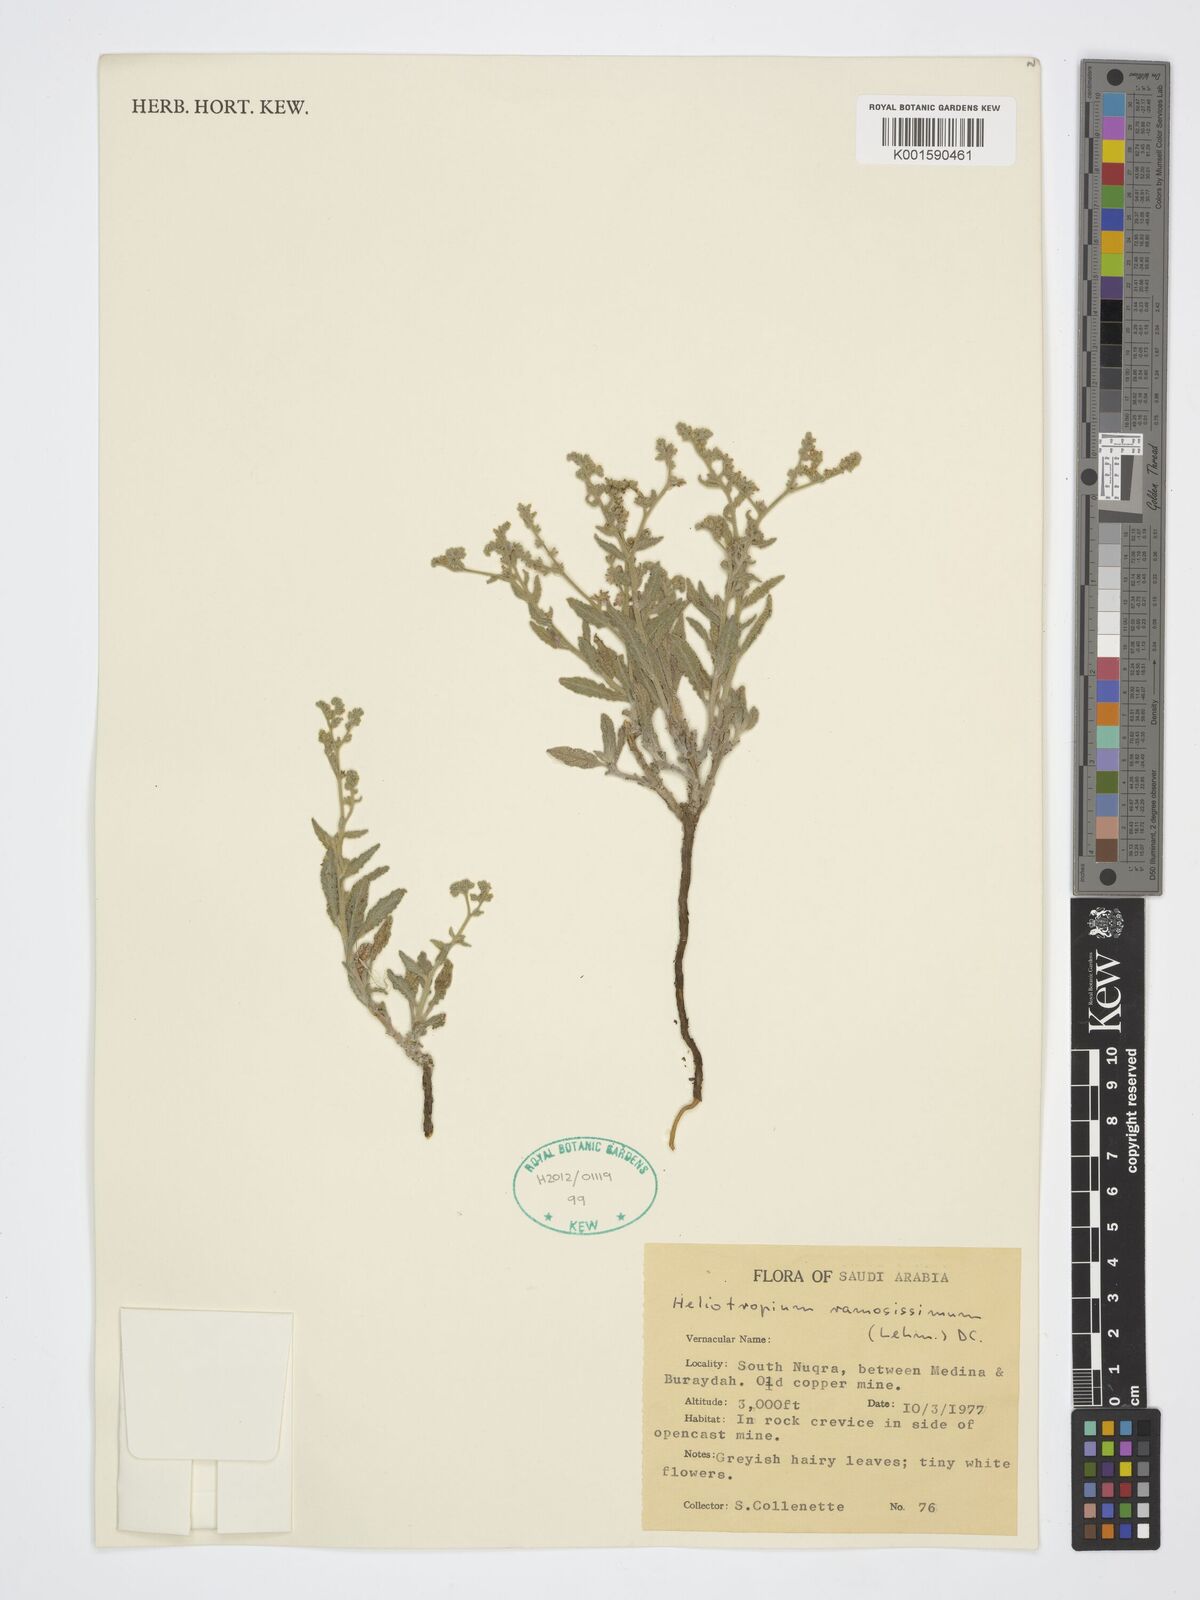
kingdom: Plantae
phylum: Tracheophyta
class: Magnoliopsida
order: Boraginales
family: Heliotropiaceae
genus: Heliotropium
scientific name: Heliotropium ramosissimum
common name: Wavy heliotrope
